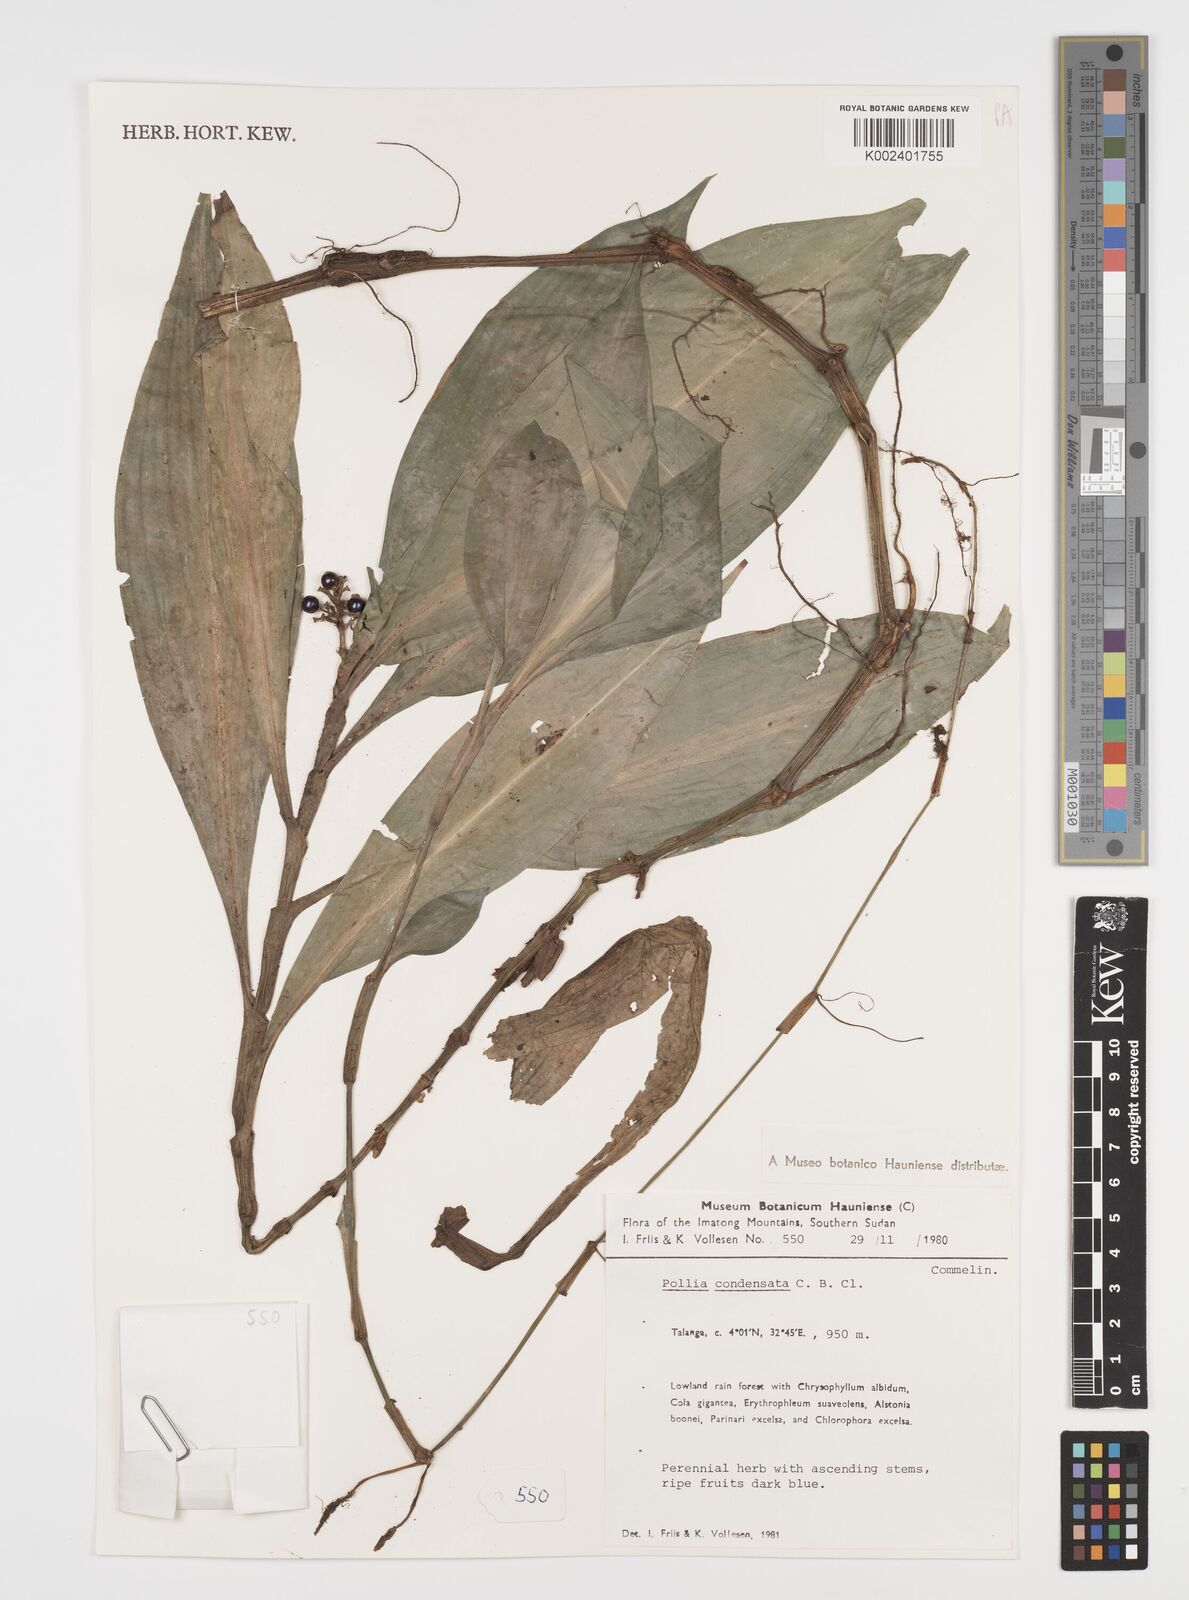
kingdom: Plantae
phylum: Tracheophyta
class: Liliopsida
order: Commelinales
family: Commelinaceae
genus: Pollia
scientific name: Pollia condensata
